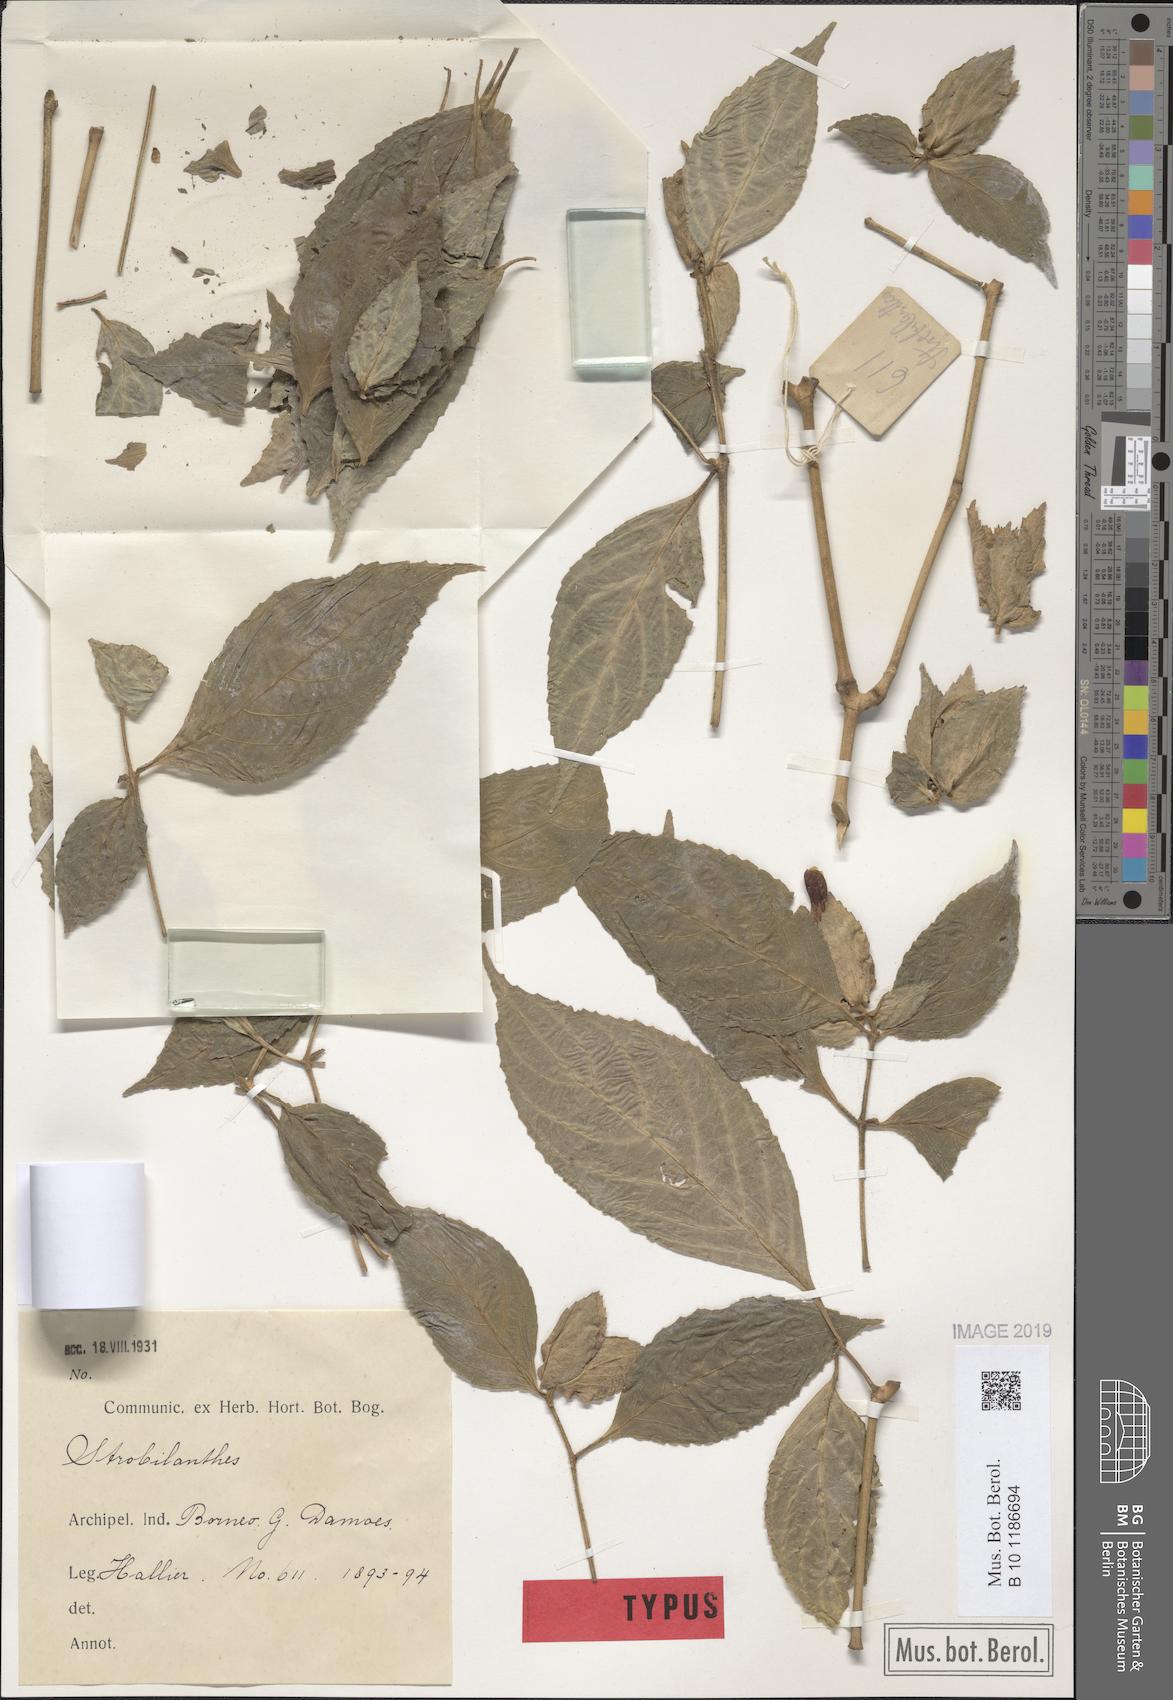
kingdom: Plantae
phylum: Tracheophyta
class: Magnoliopsida
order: Lamiales
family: Acanthaceae
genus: Strobilanthes
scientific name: Strobilanthes echinata
